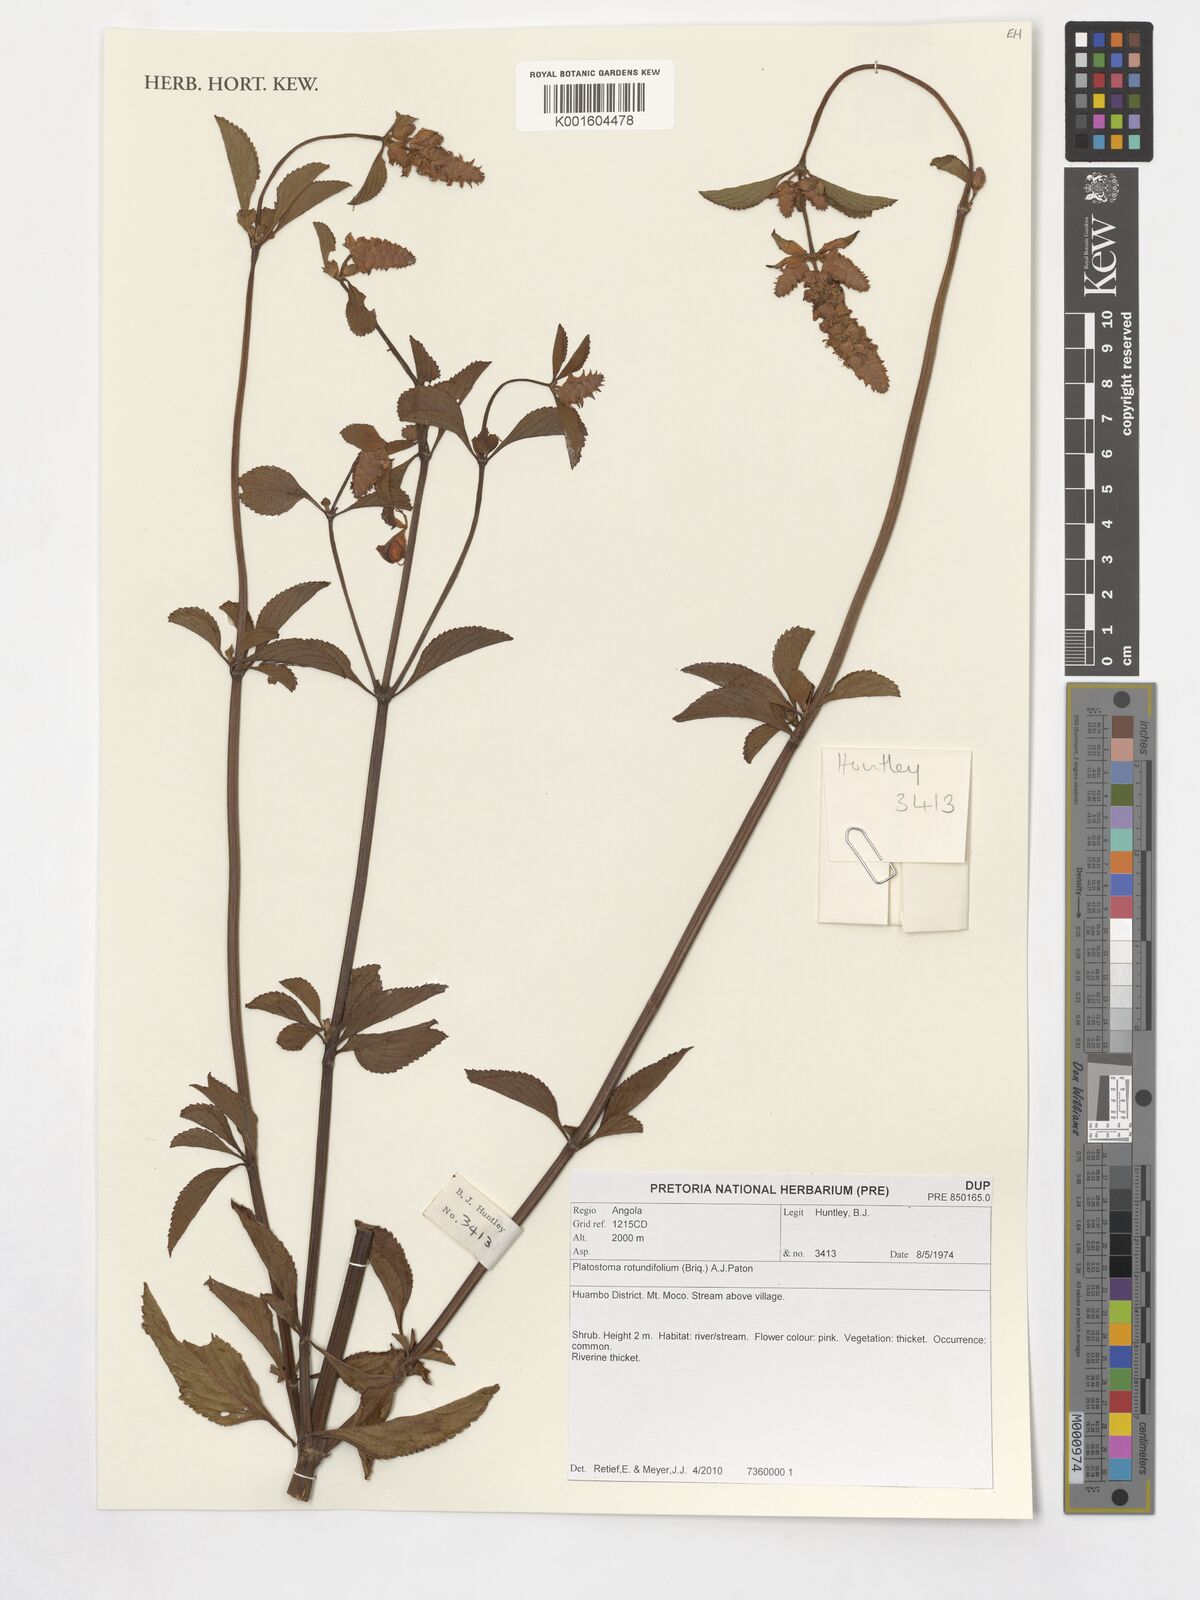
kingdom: Plantae
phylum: Tracheophyta
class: Magnoliopsida
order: Lamiales
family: Lamiaceae
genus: Platostoma
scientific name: Platostoma rotundifolium
